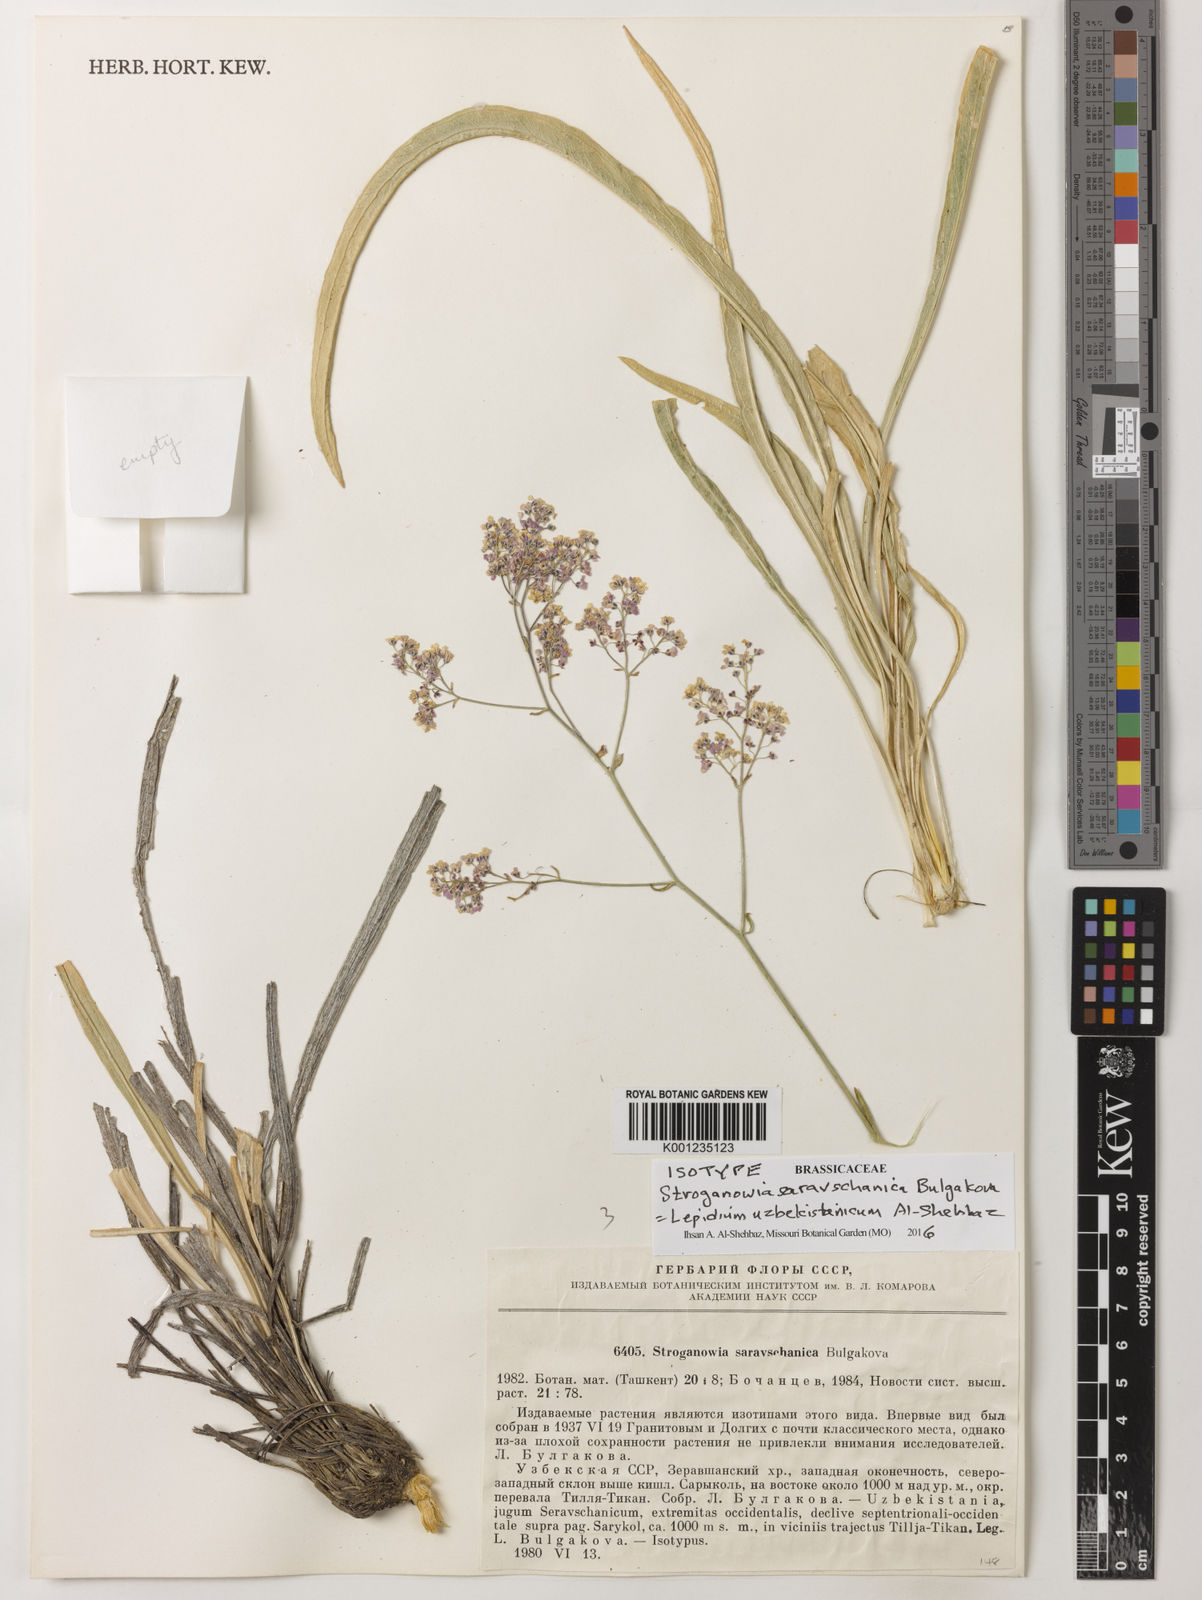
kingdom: Plantae
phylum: Tracheophyta
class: Magnoliopsida
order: Brassicales
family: Brassicaceae
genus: Lepidium
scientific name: Lepidium uzbekistanicum
